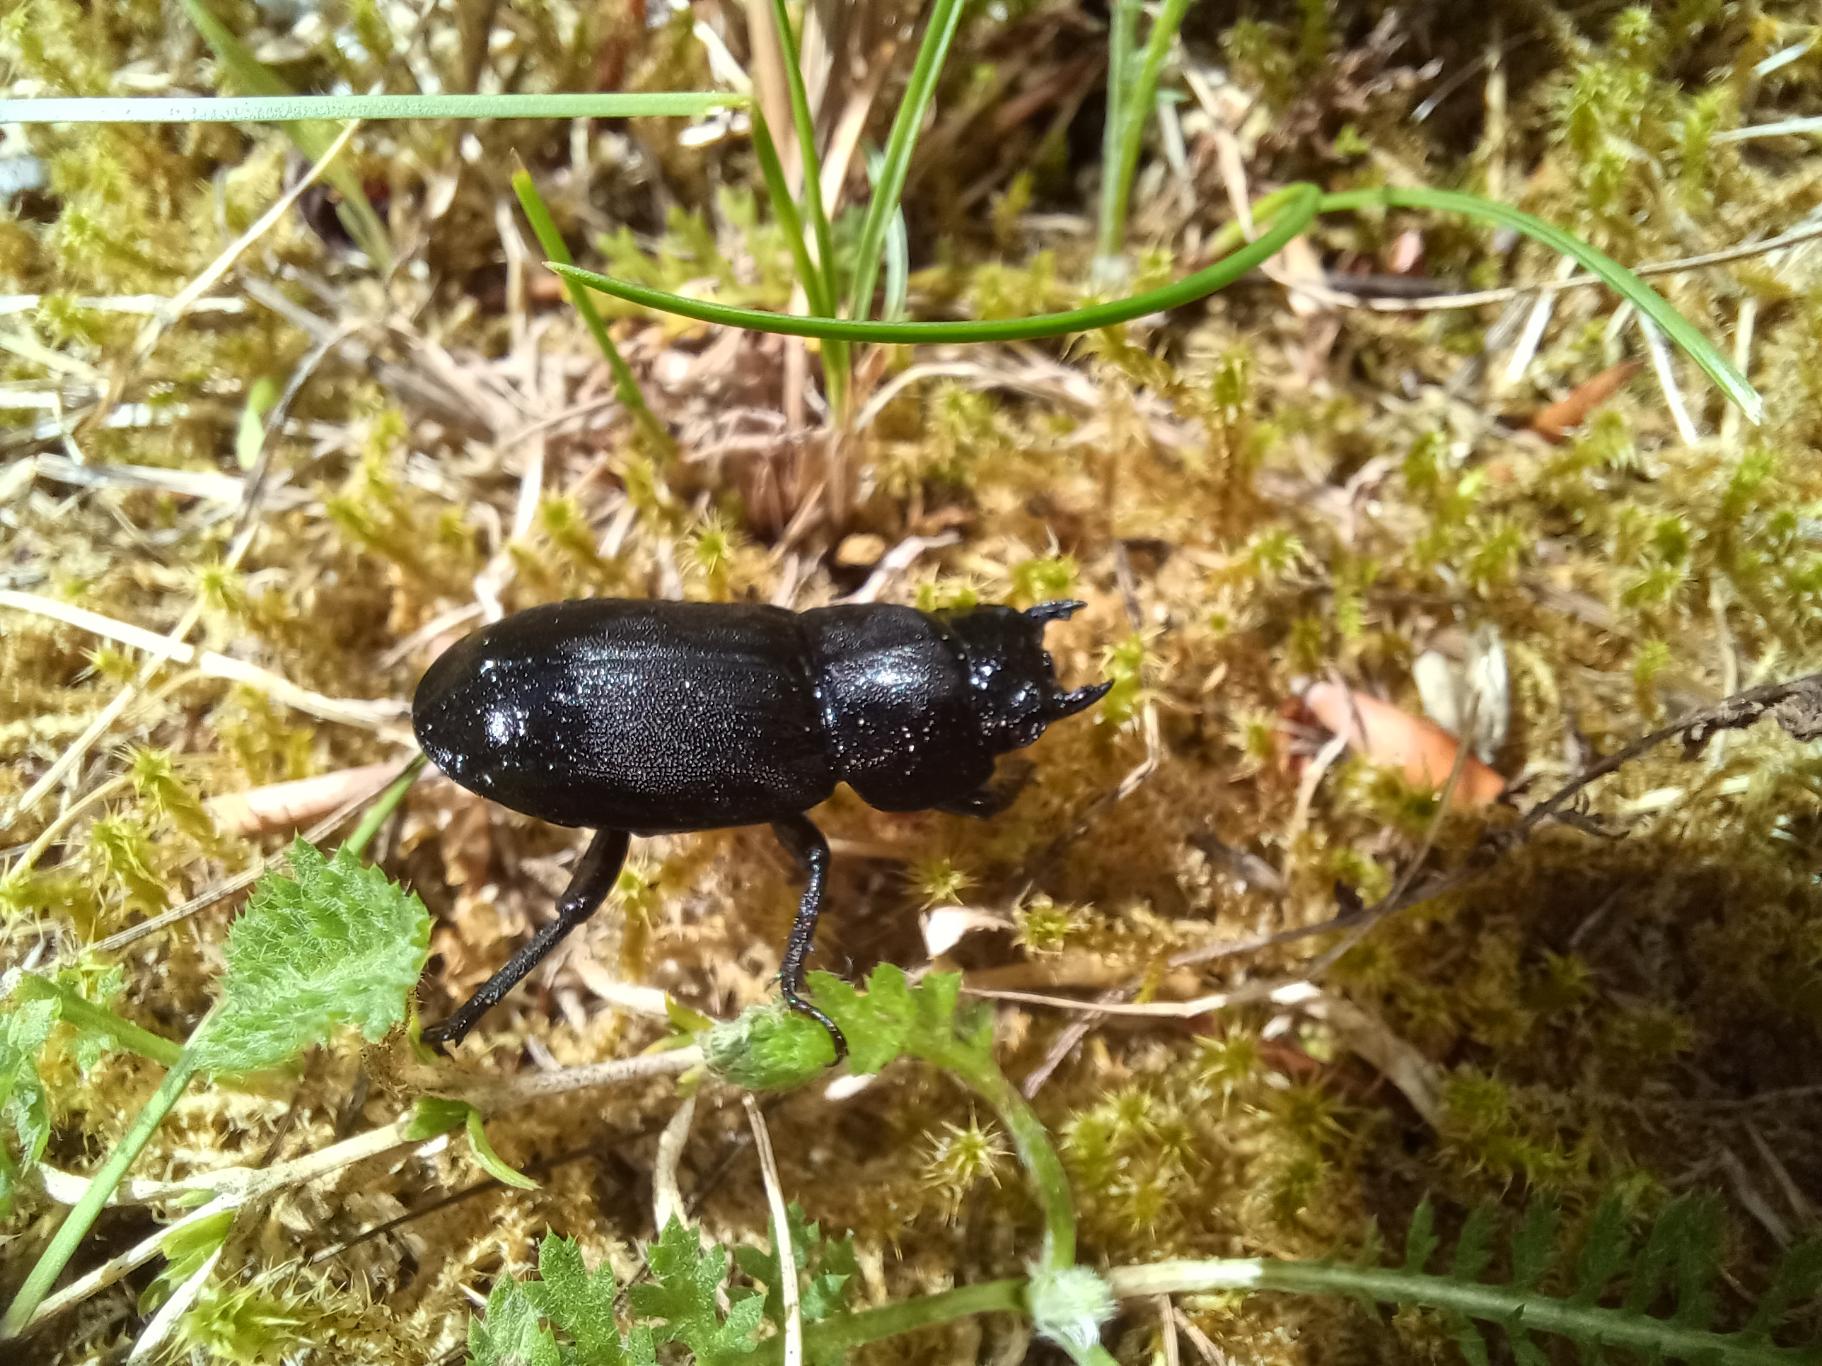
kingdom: Animalia
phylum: Arthropoda
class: Insecta
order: Coleoptera
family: Lucanidae
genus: Dorcus
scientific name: Dorcus parallelipipedus
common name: Bøghjort
